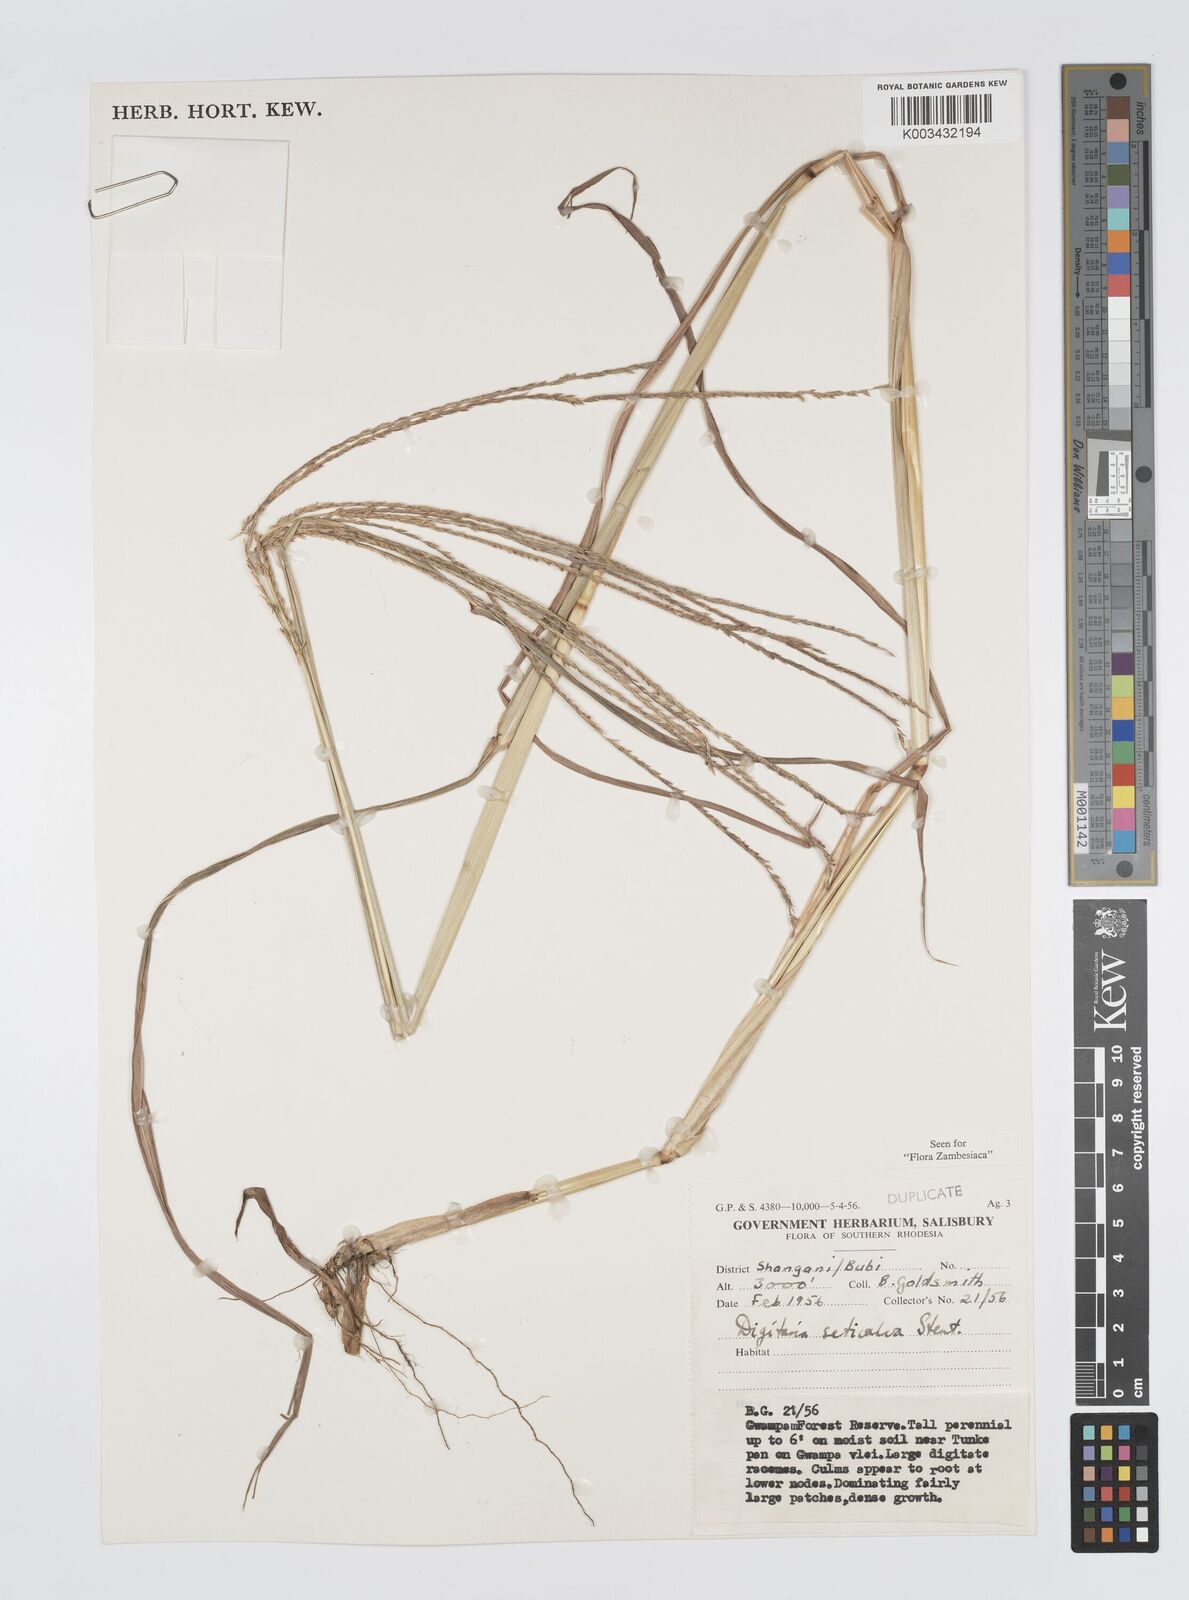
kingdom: Plantae
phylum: Tracheophyta
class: Liliopsida
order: Poales
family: Poaceae
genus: Digitaria
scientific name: Digitaria milanjiana
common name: Madagascar crabgrass
